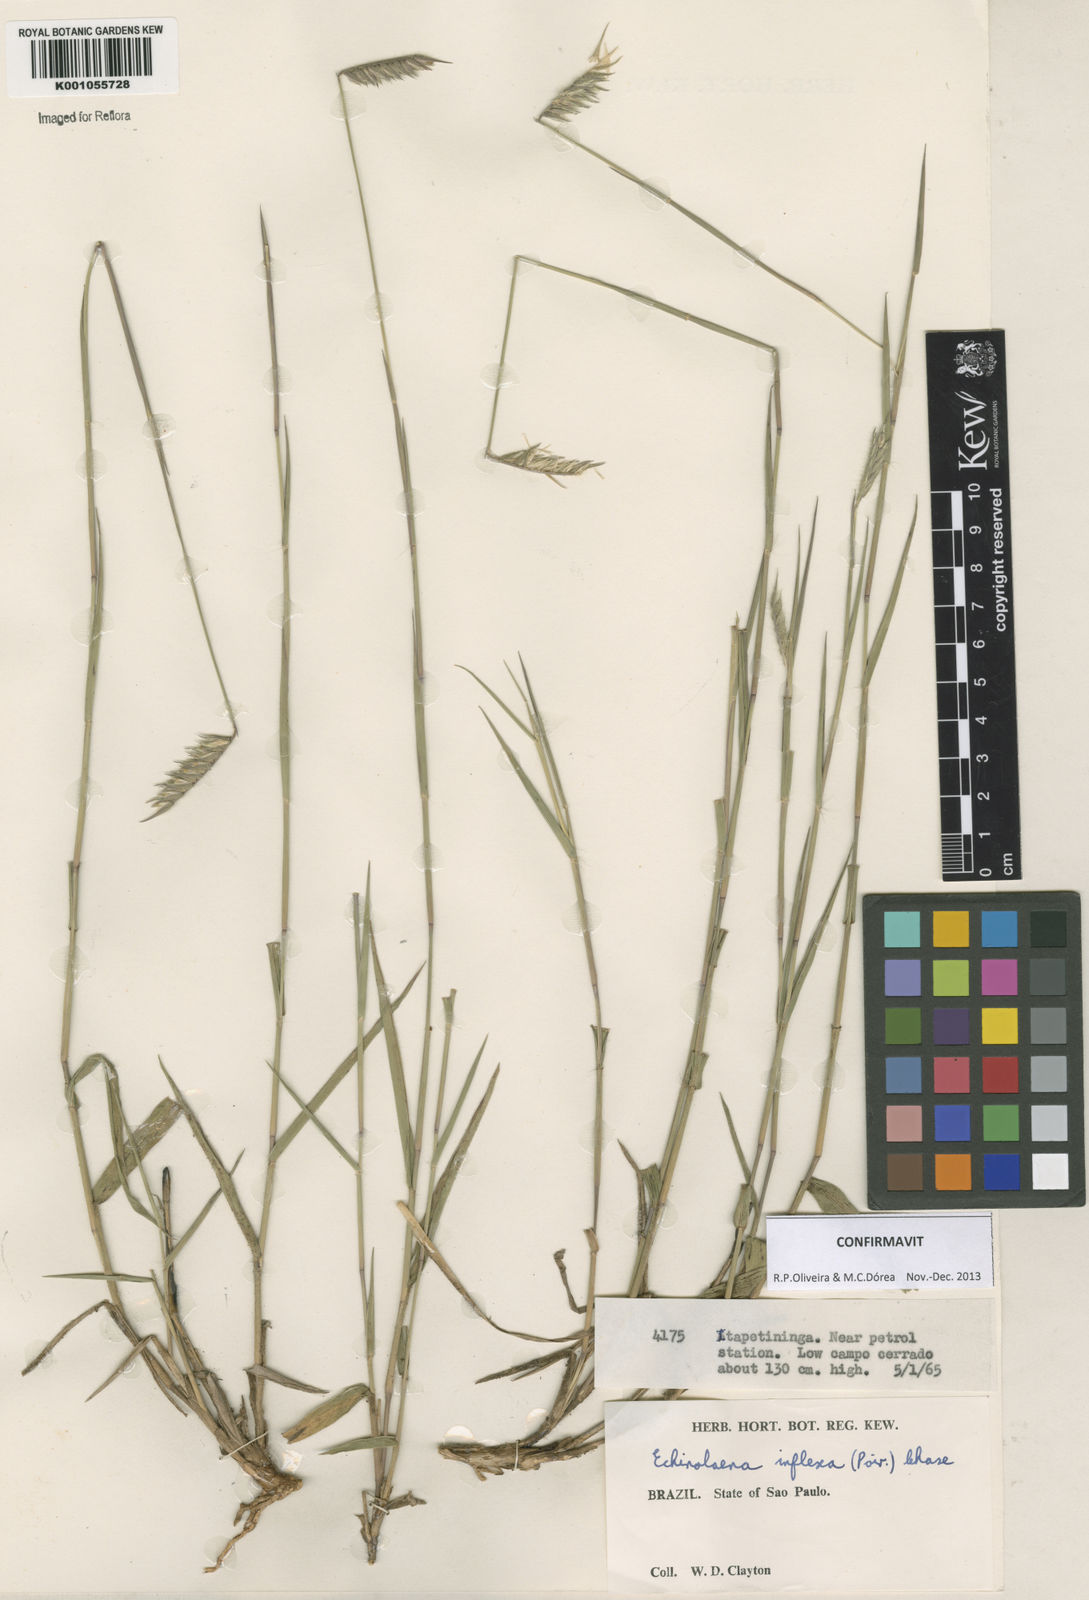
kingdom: Plantae
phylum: Tracheophyta
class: Liliopsida
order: Poales
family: Poaceae
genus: Echinolaena
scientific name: Echinolaena inflexa
